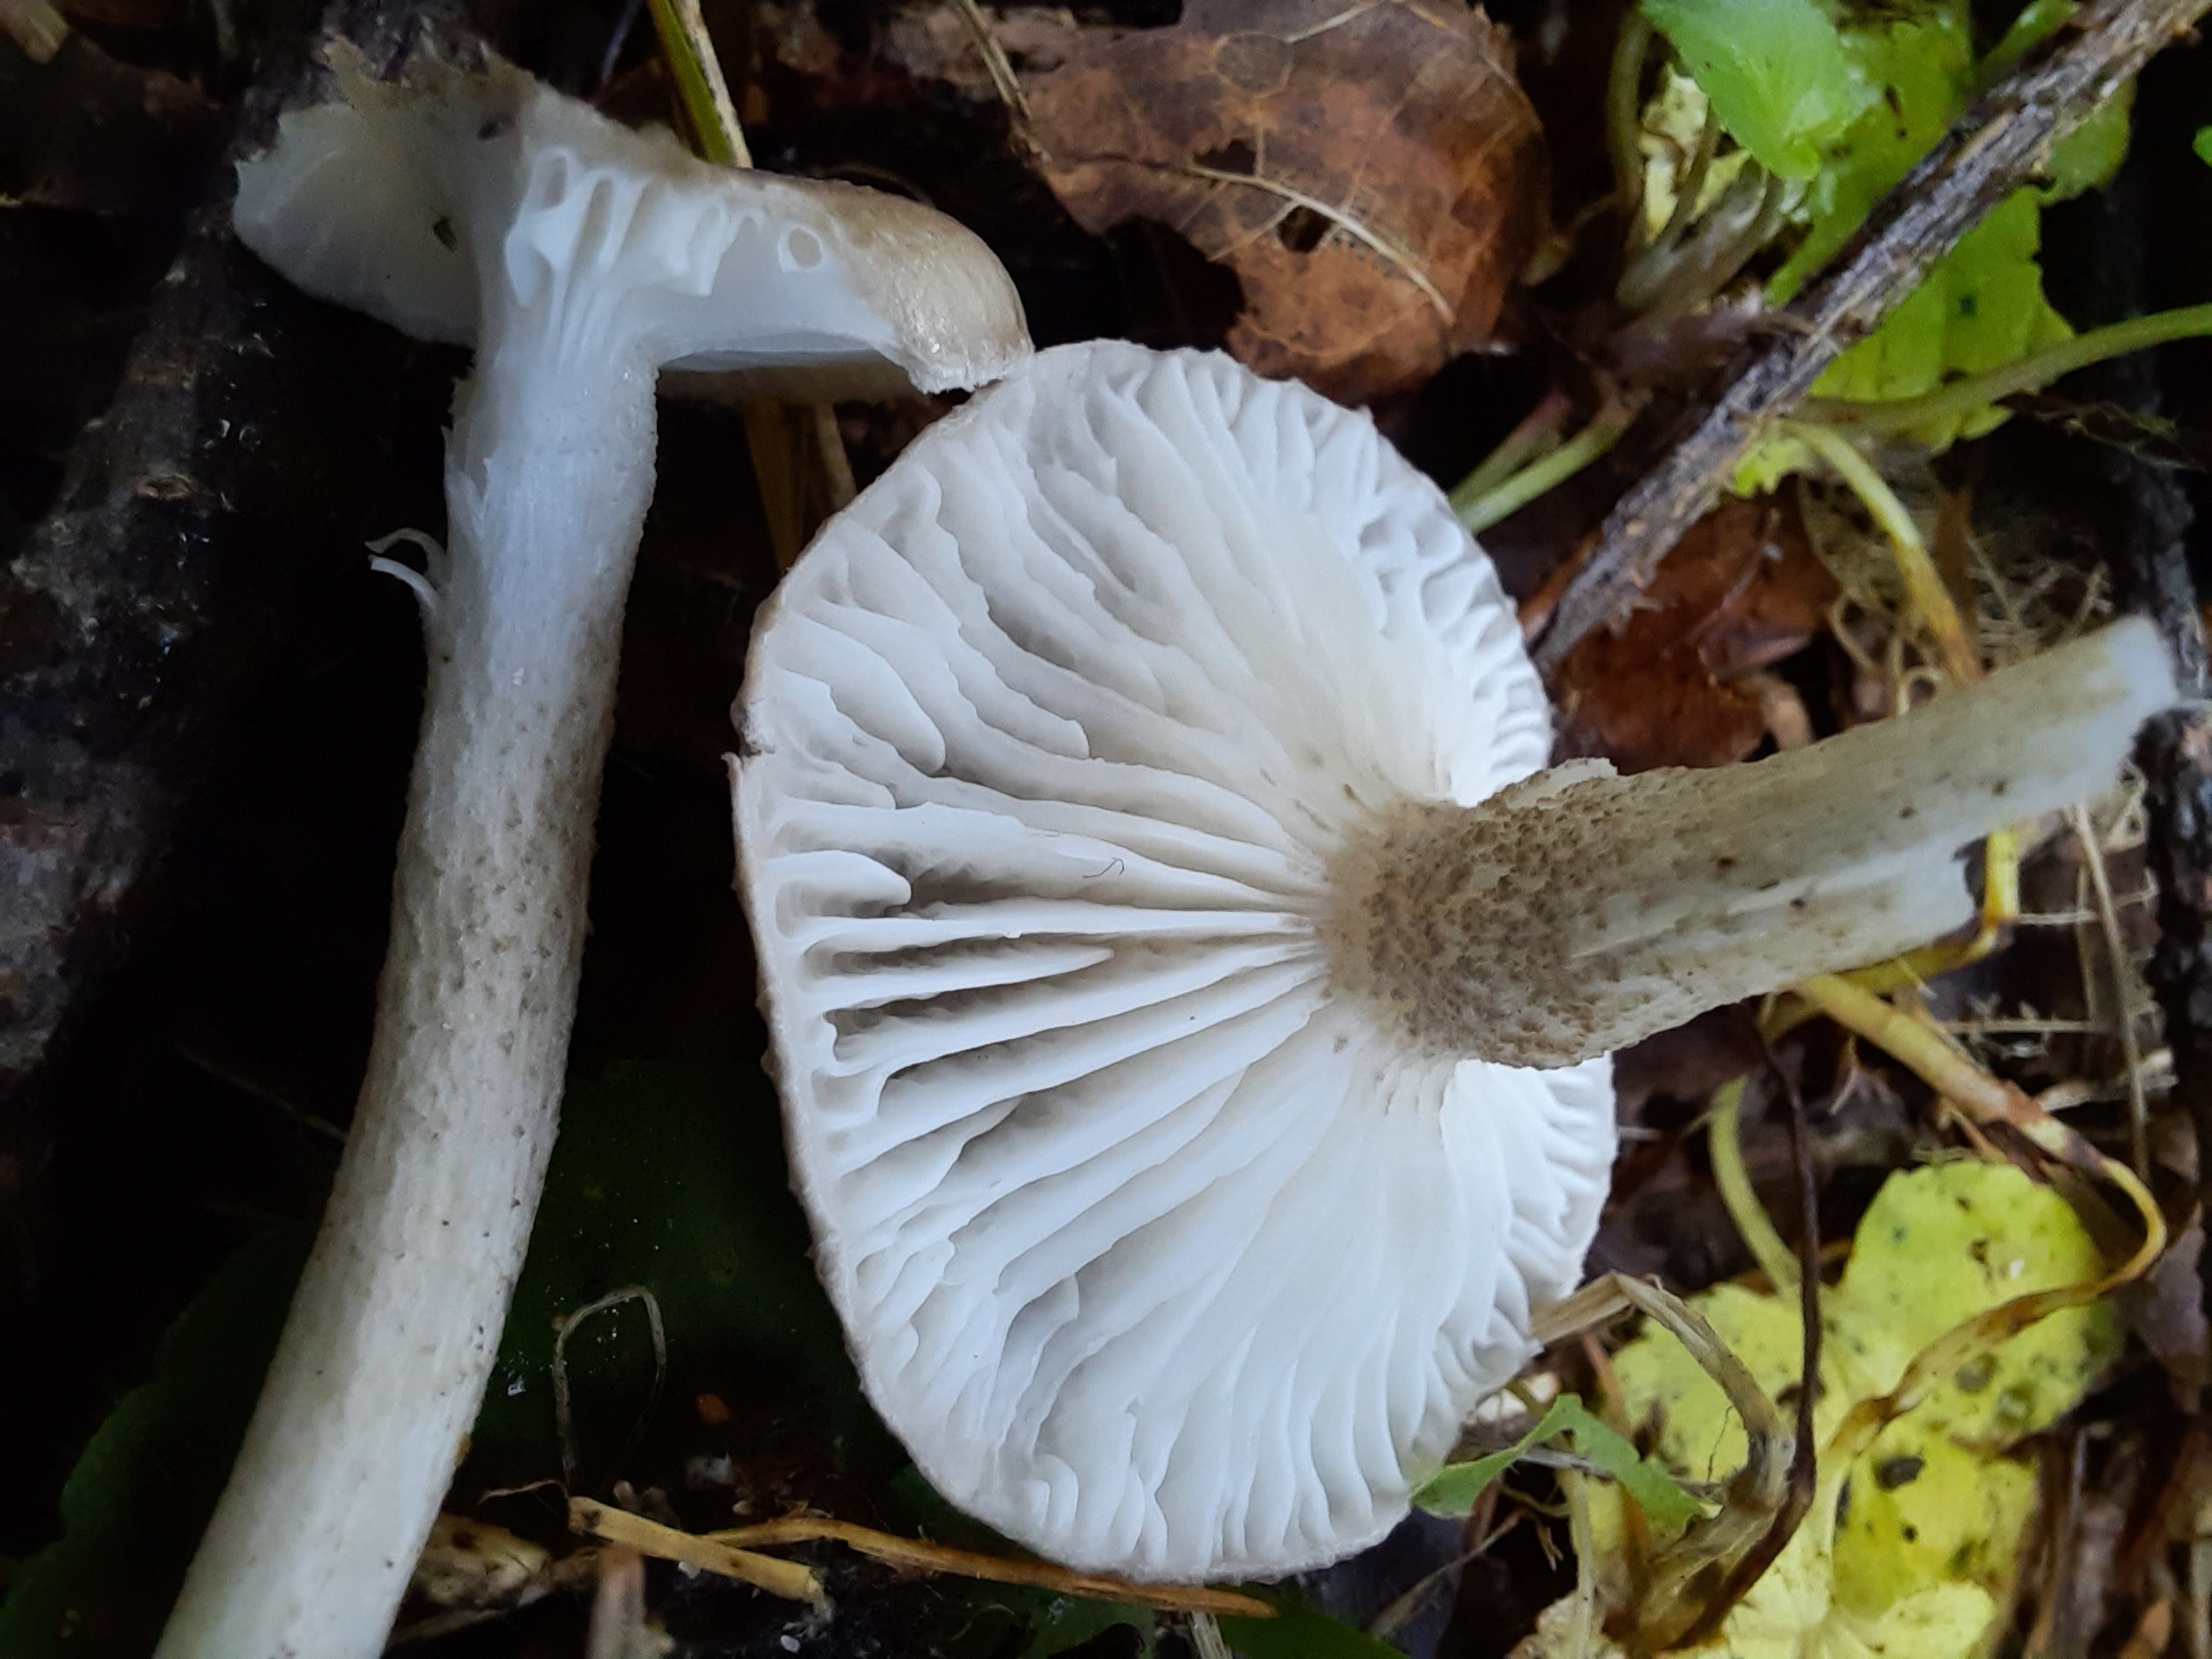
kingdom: Fungi
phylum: Basidiomycota
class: Agaricomycetes
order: Agaricales
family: Hygrophoraceae
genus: Hygrophorus
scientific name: Hygrophorus pustulatus
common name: mørkprikket sneglehat
